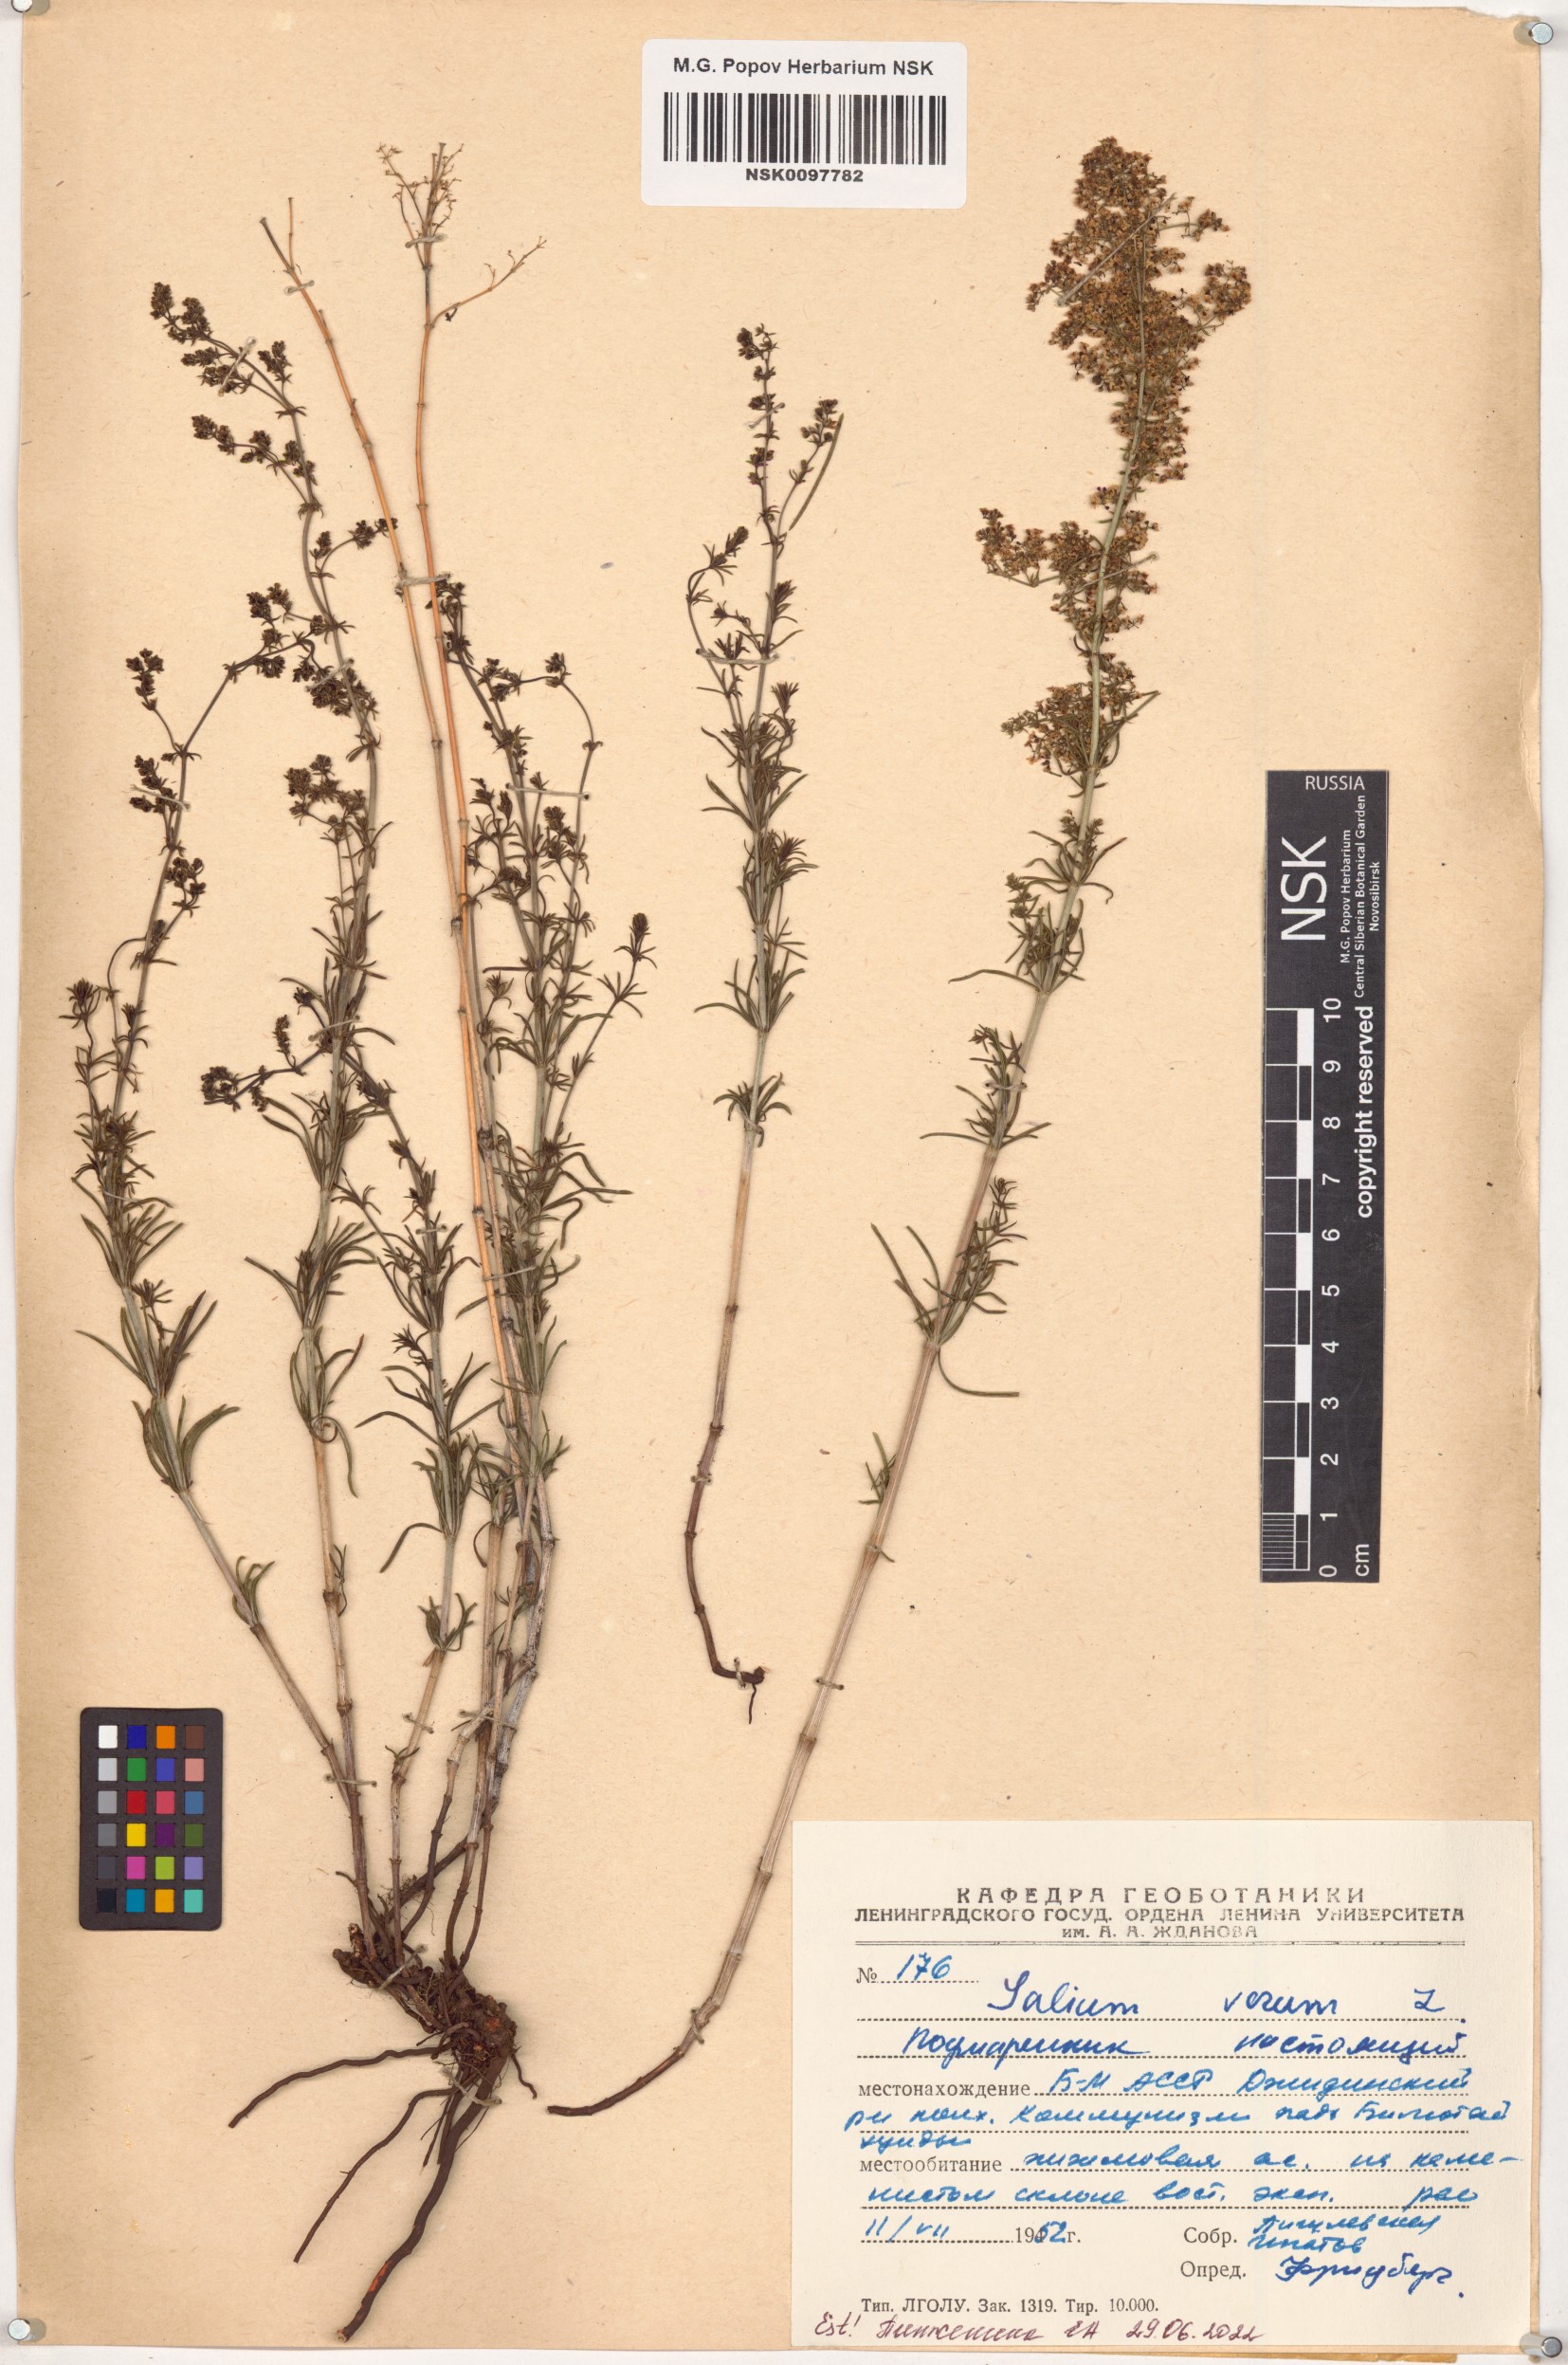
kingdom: Plantae
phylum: Tracheophyta
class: Magnoliopsida
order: Gentianales
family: Rubiaceae
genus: Galium
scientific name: Galium verum
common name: Lady's bedstraw
